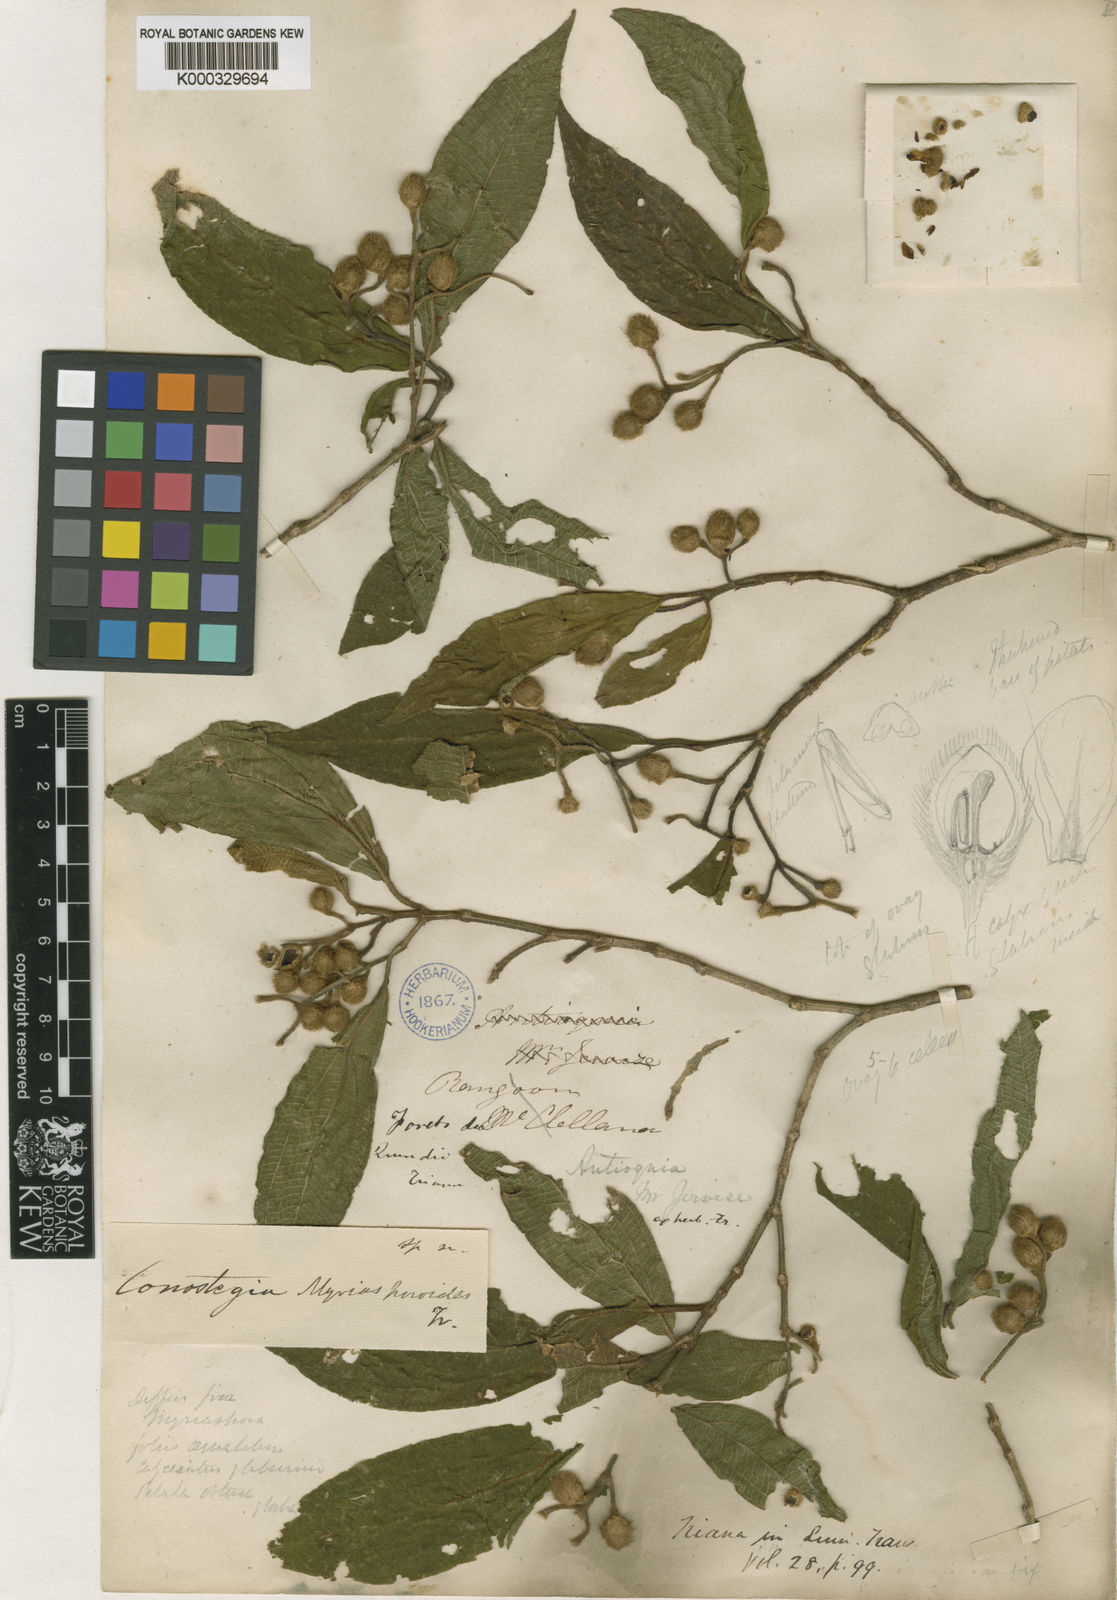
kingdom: Plantae
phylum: Tracheophyta
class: Magnoliopsida
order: Myrtales
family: Melastomataceae
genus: Miconia
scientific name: Miconia Conostegia myriasporoides
